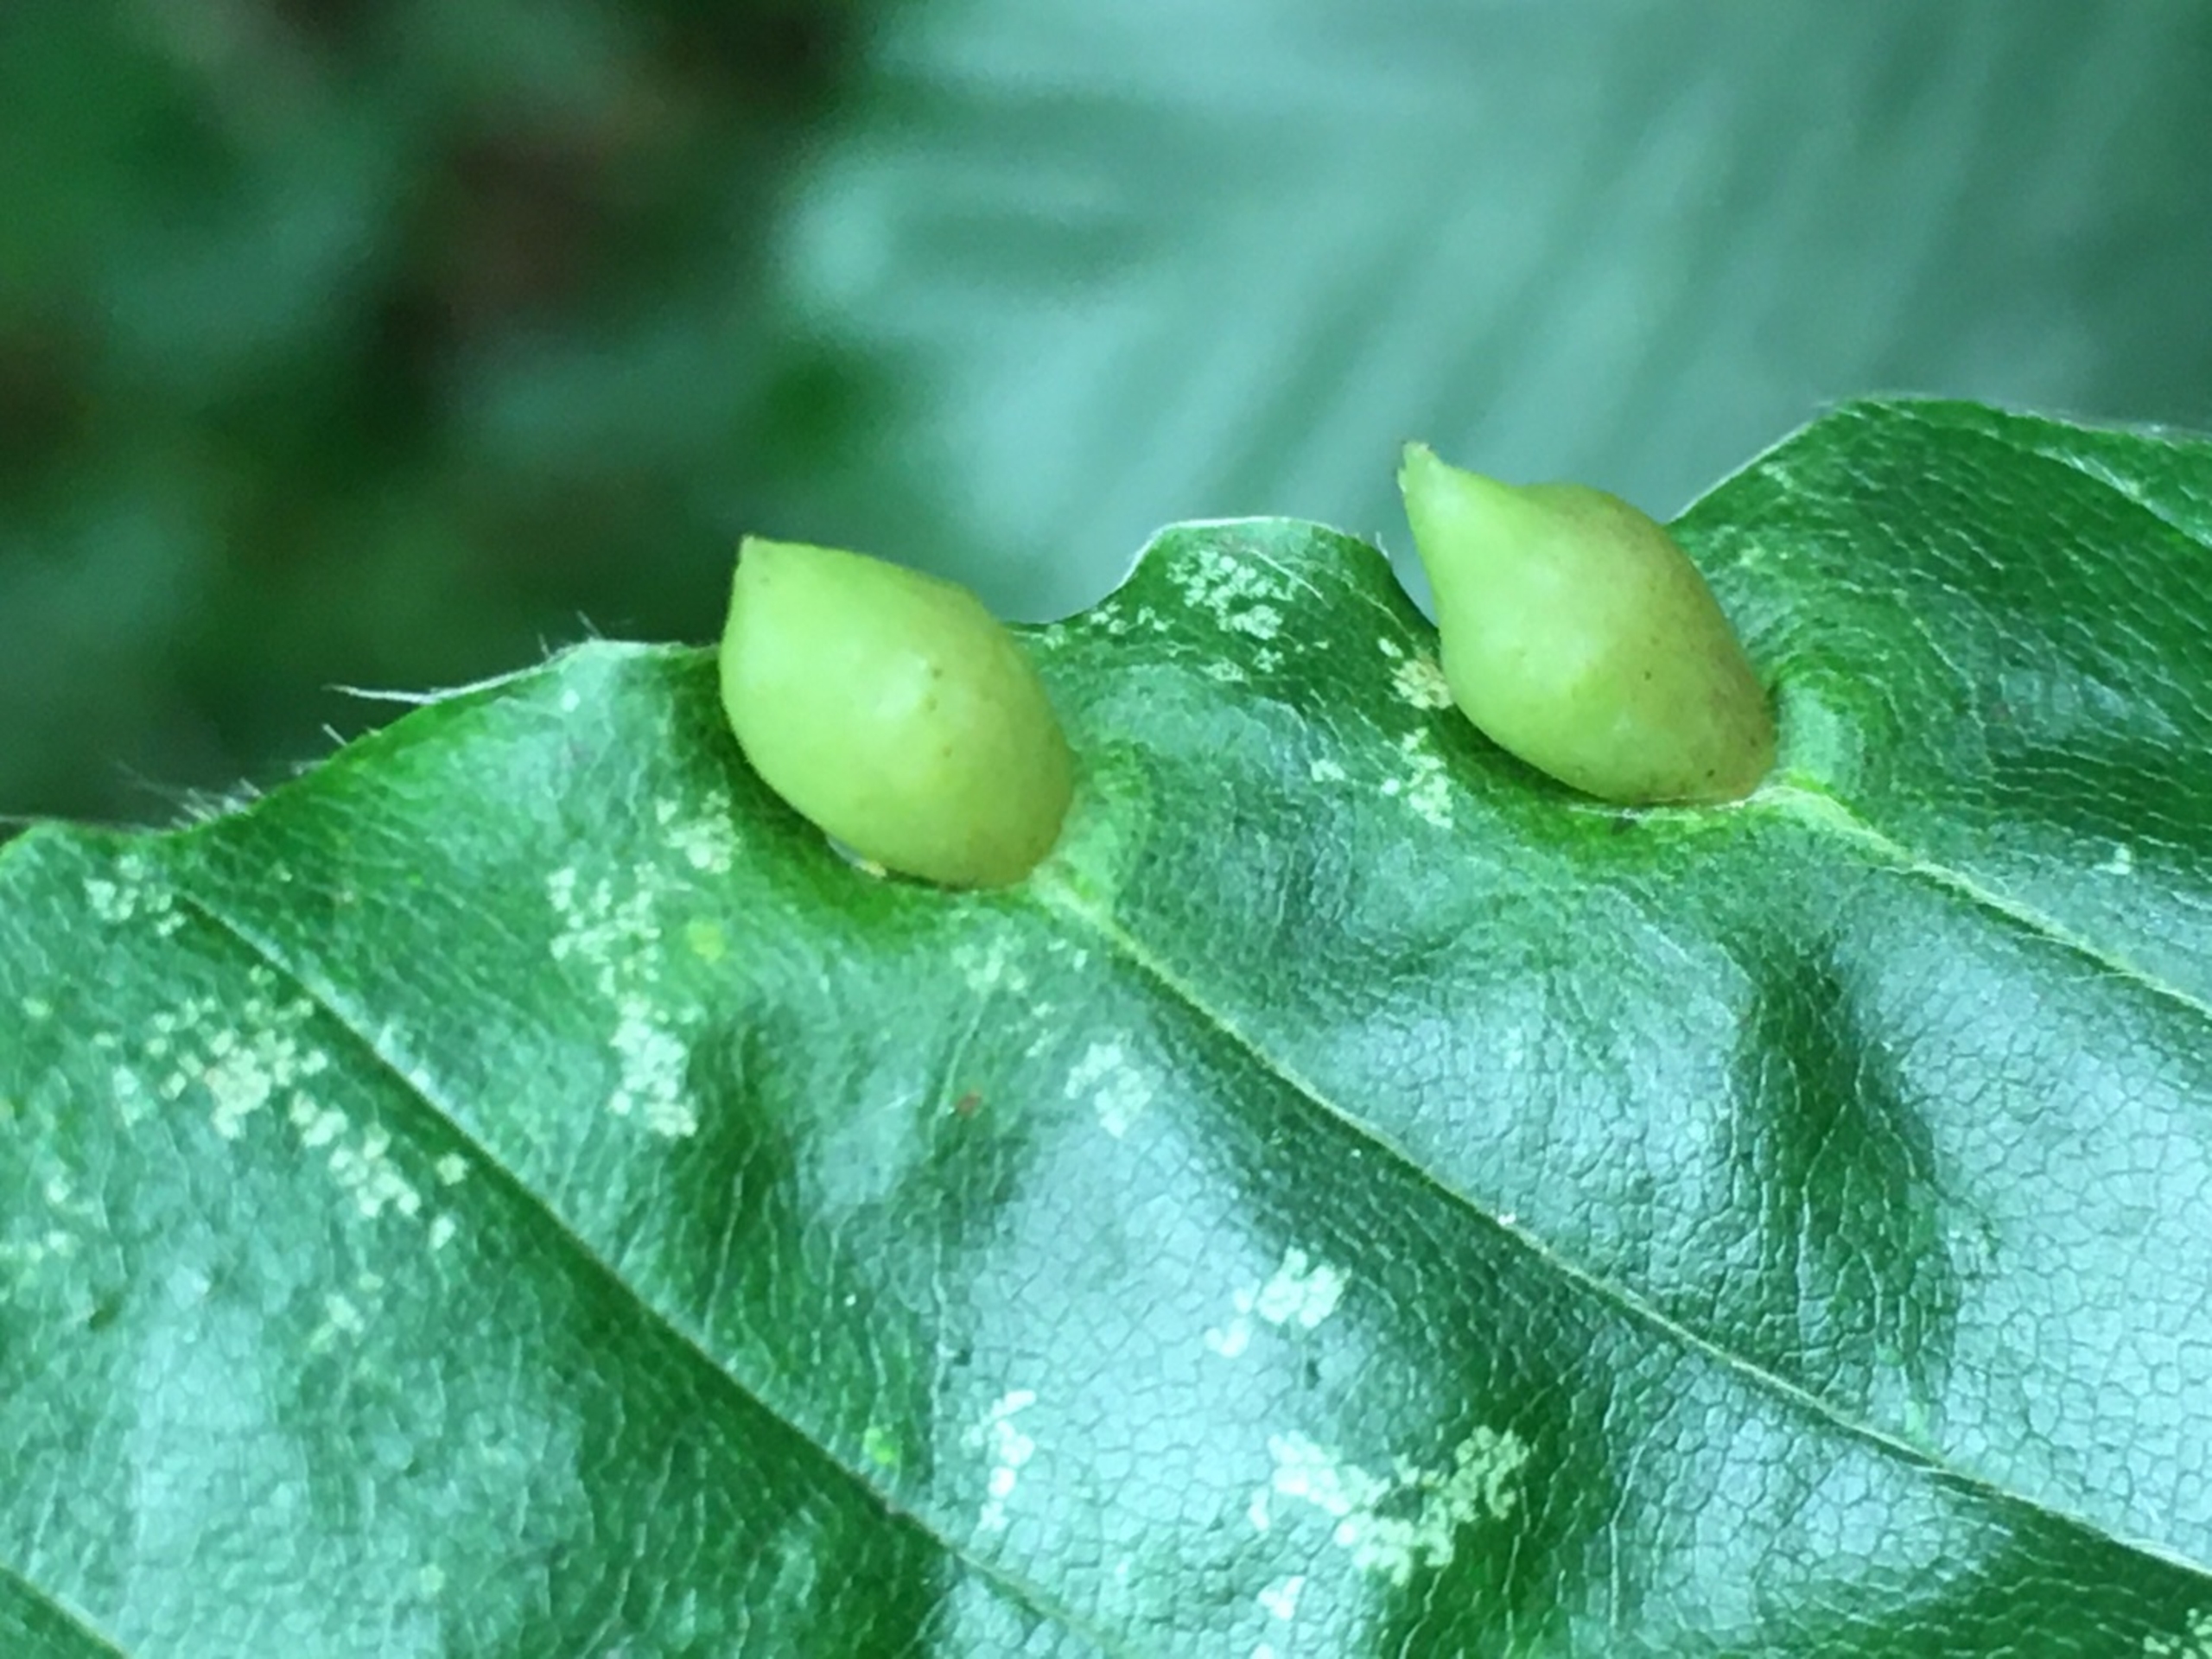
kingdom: Animalia
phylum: Arthropoda
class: Insecta
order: Diptera
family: Cecidomyiidae
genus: Mikiola
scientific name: Mikiola fagi
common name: Bøgegalmyg
